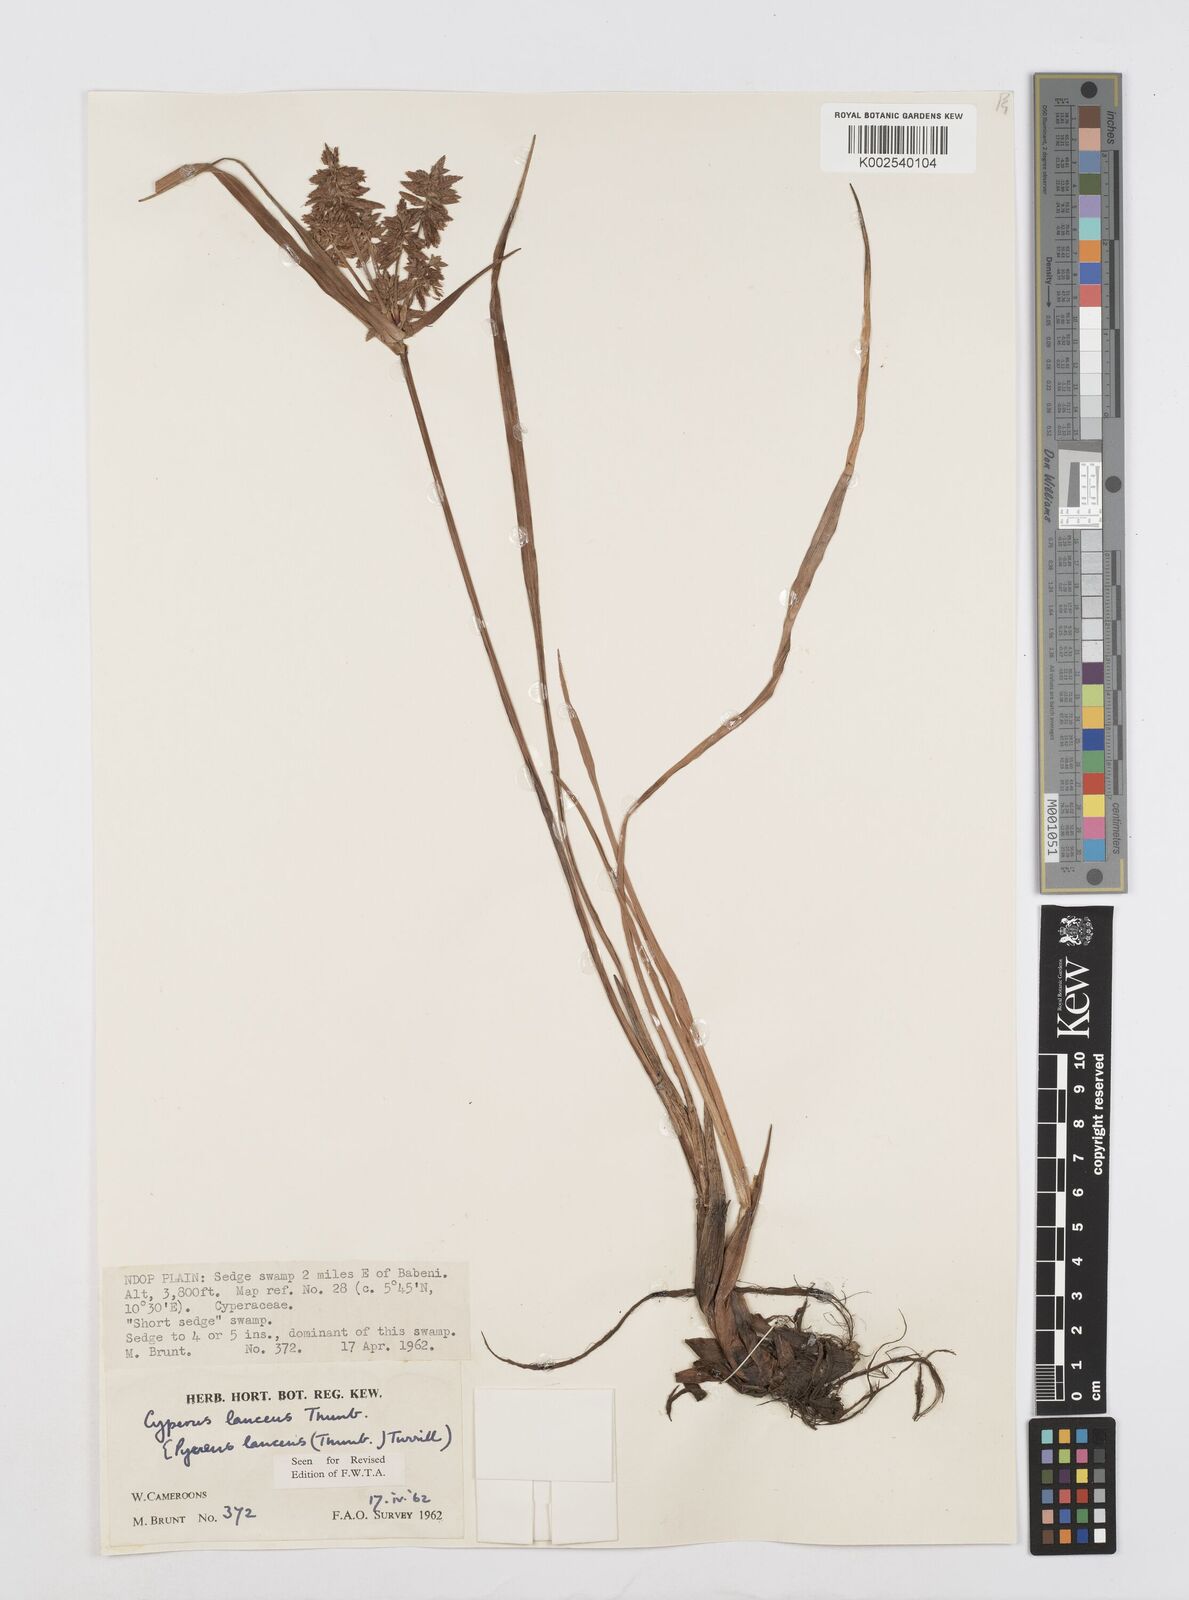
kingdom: Plantae
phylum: Tracheophyta
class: Liliopsida
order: Poales
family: Cyperaceae
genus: Cyperus
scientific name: Cyperus nitidus
